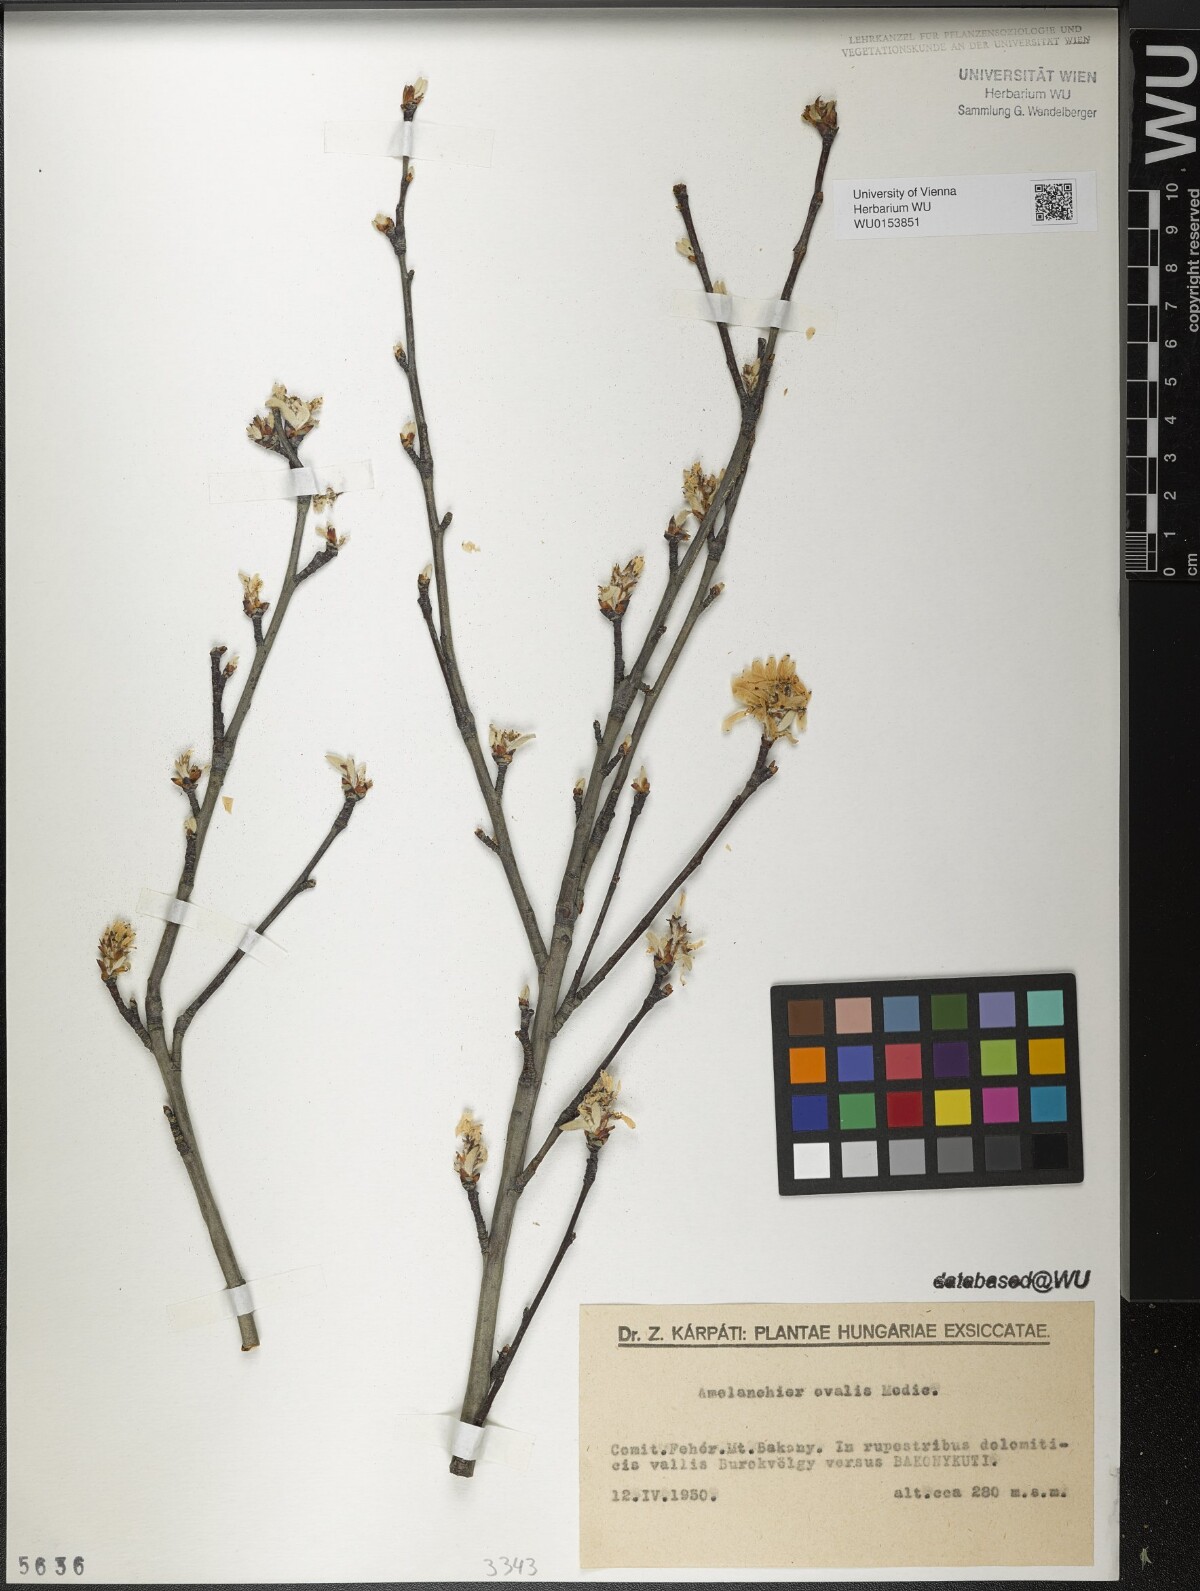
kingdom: Plantae
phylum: Tracheophyta
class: Magnoliopsida
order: Rosales
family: Rosaceae
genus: Amelanchier
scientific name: Amelanchier ovalis
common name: Serviceberry
